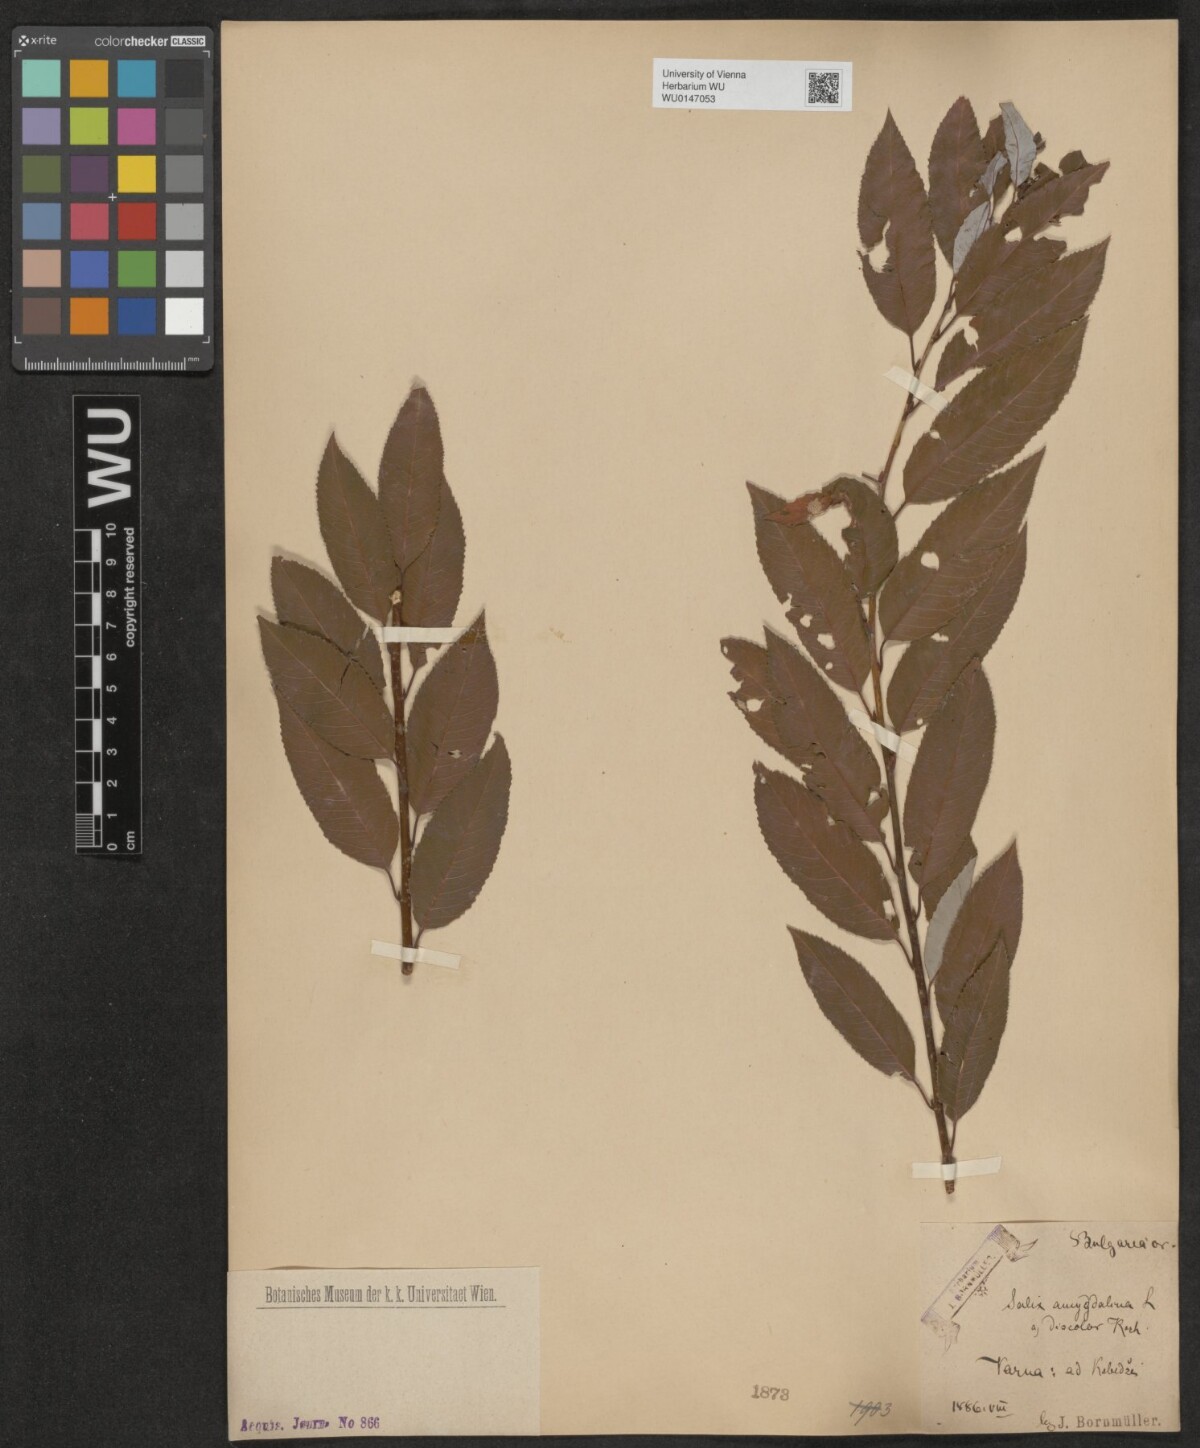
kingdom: Plantae
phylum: Tracheophyta
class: Magnoliopsida
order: Malpighiales
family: Salicaceae
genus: Salix
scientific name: Salix triandra
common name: Almond willow
